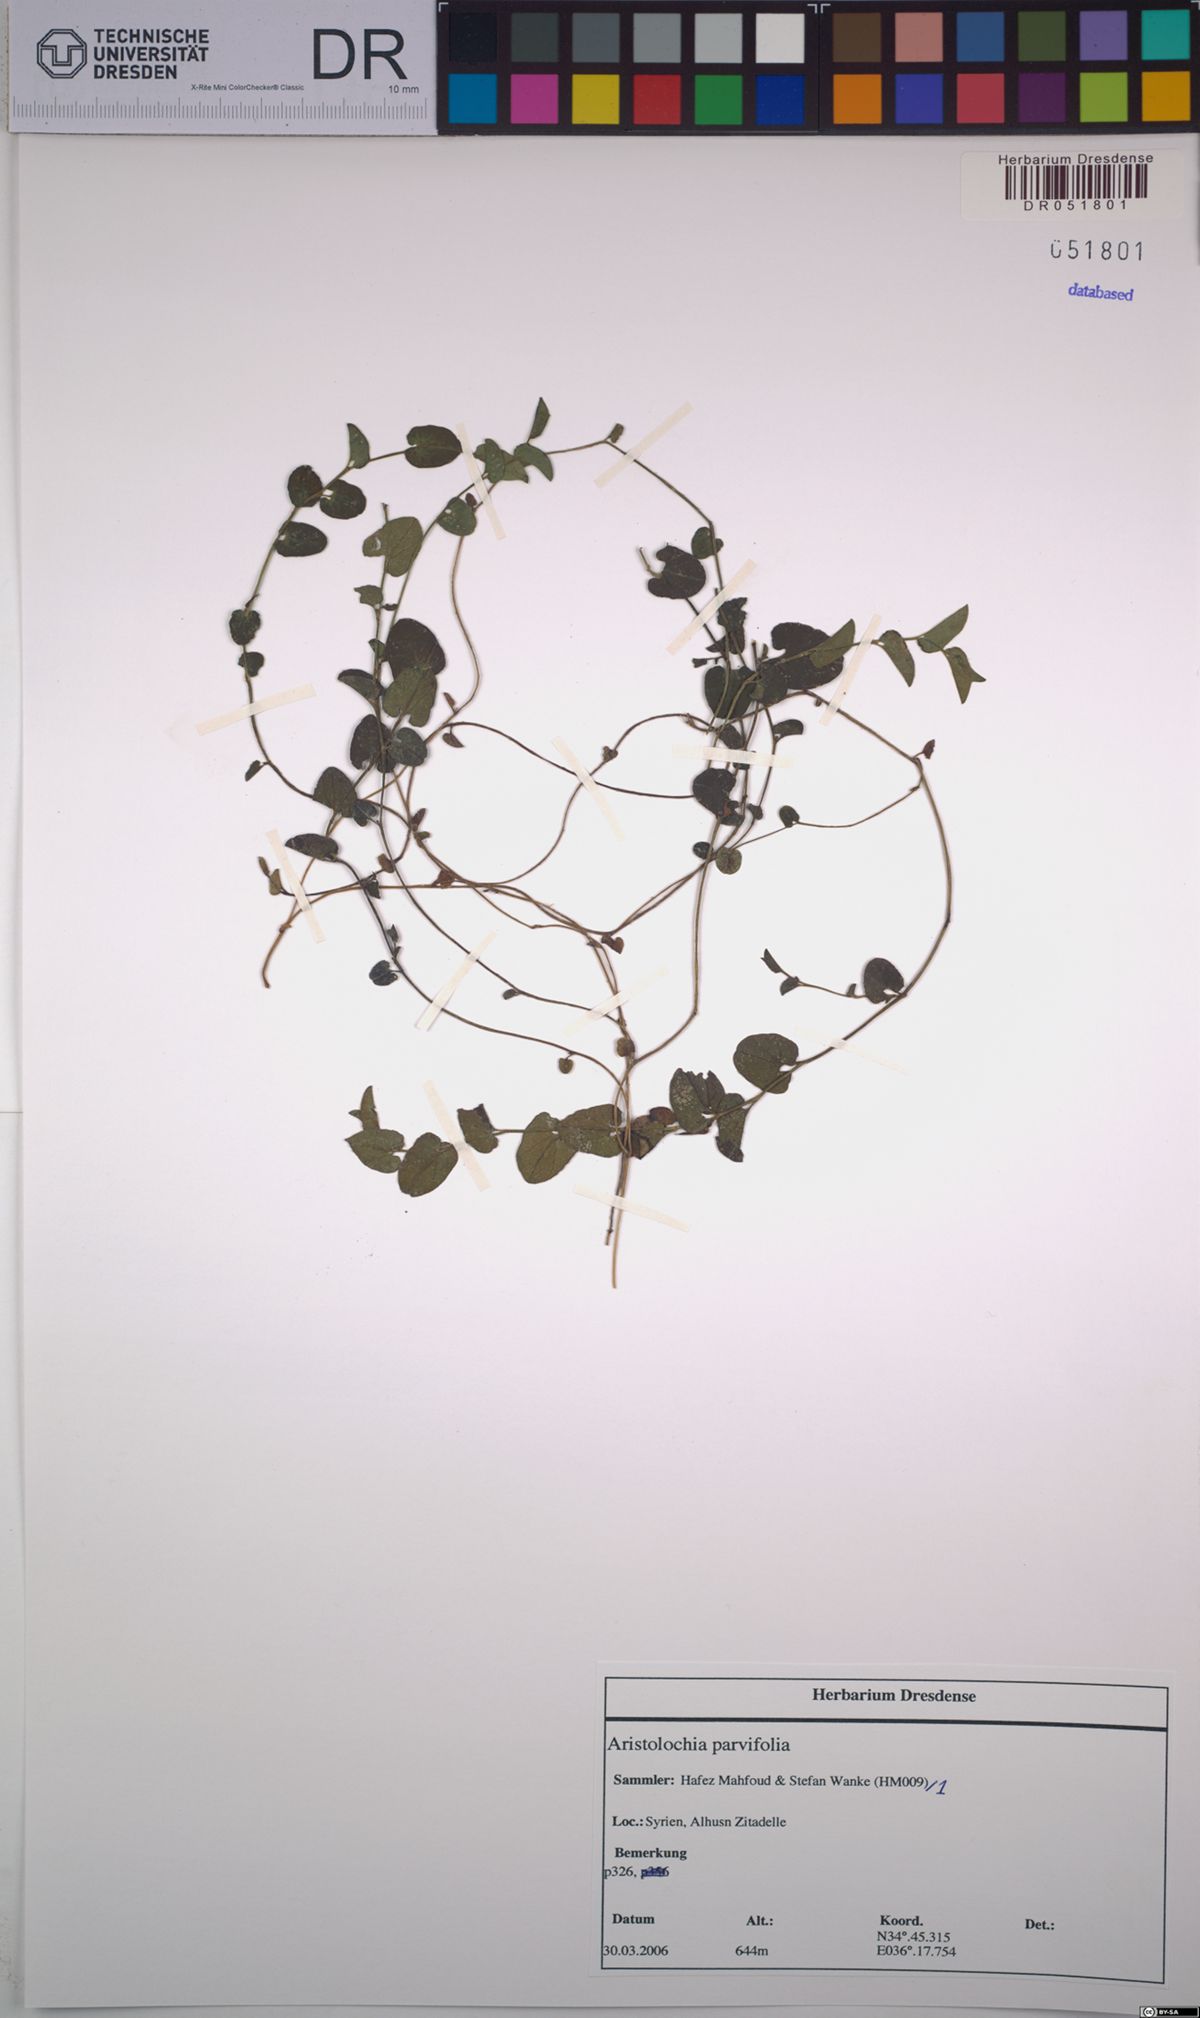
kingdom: Plantae
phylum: Tracheophyta
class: Magnoliopsida
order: Piperales
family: Aristolochiaceae
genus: Aristolochia
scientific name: Aristolochia parvifolia
